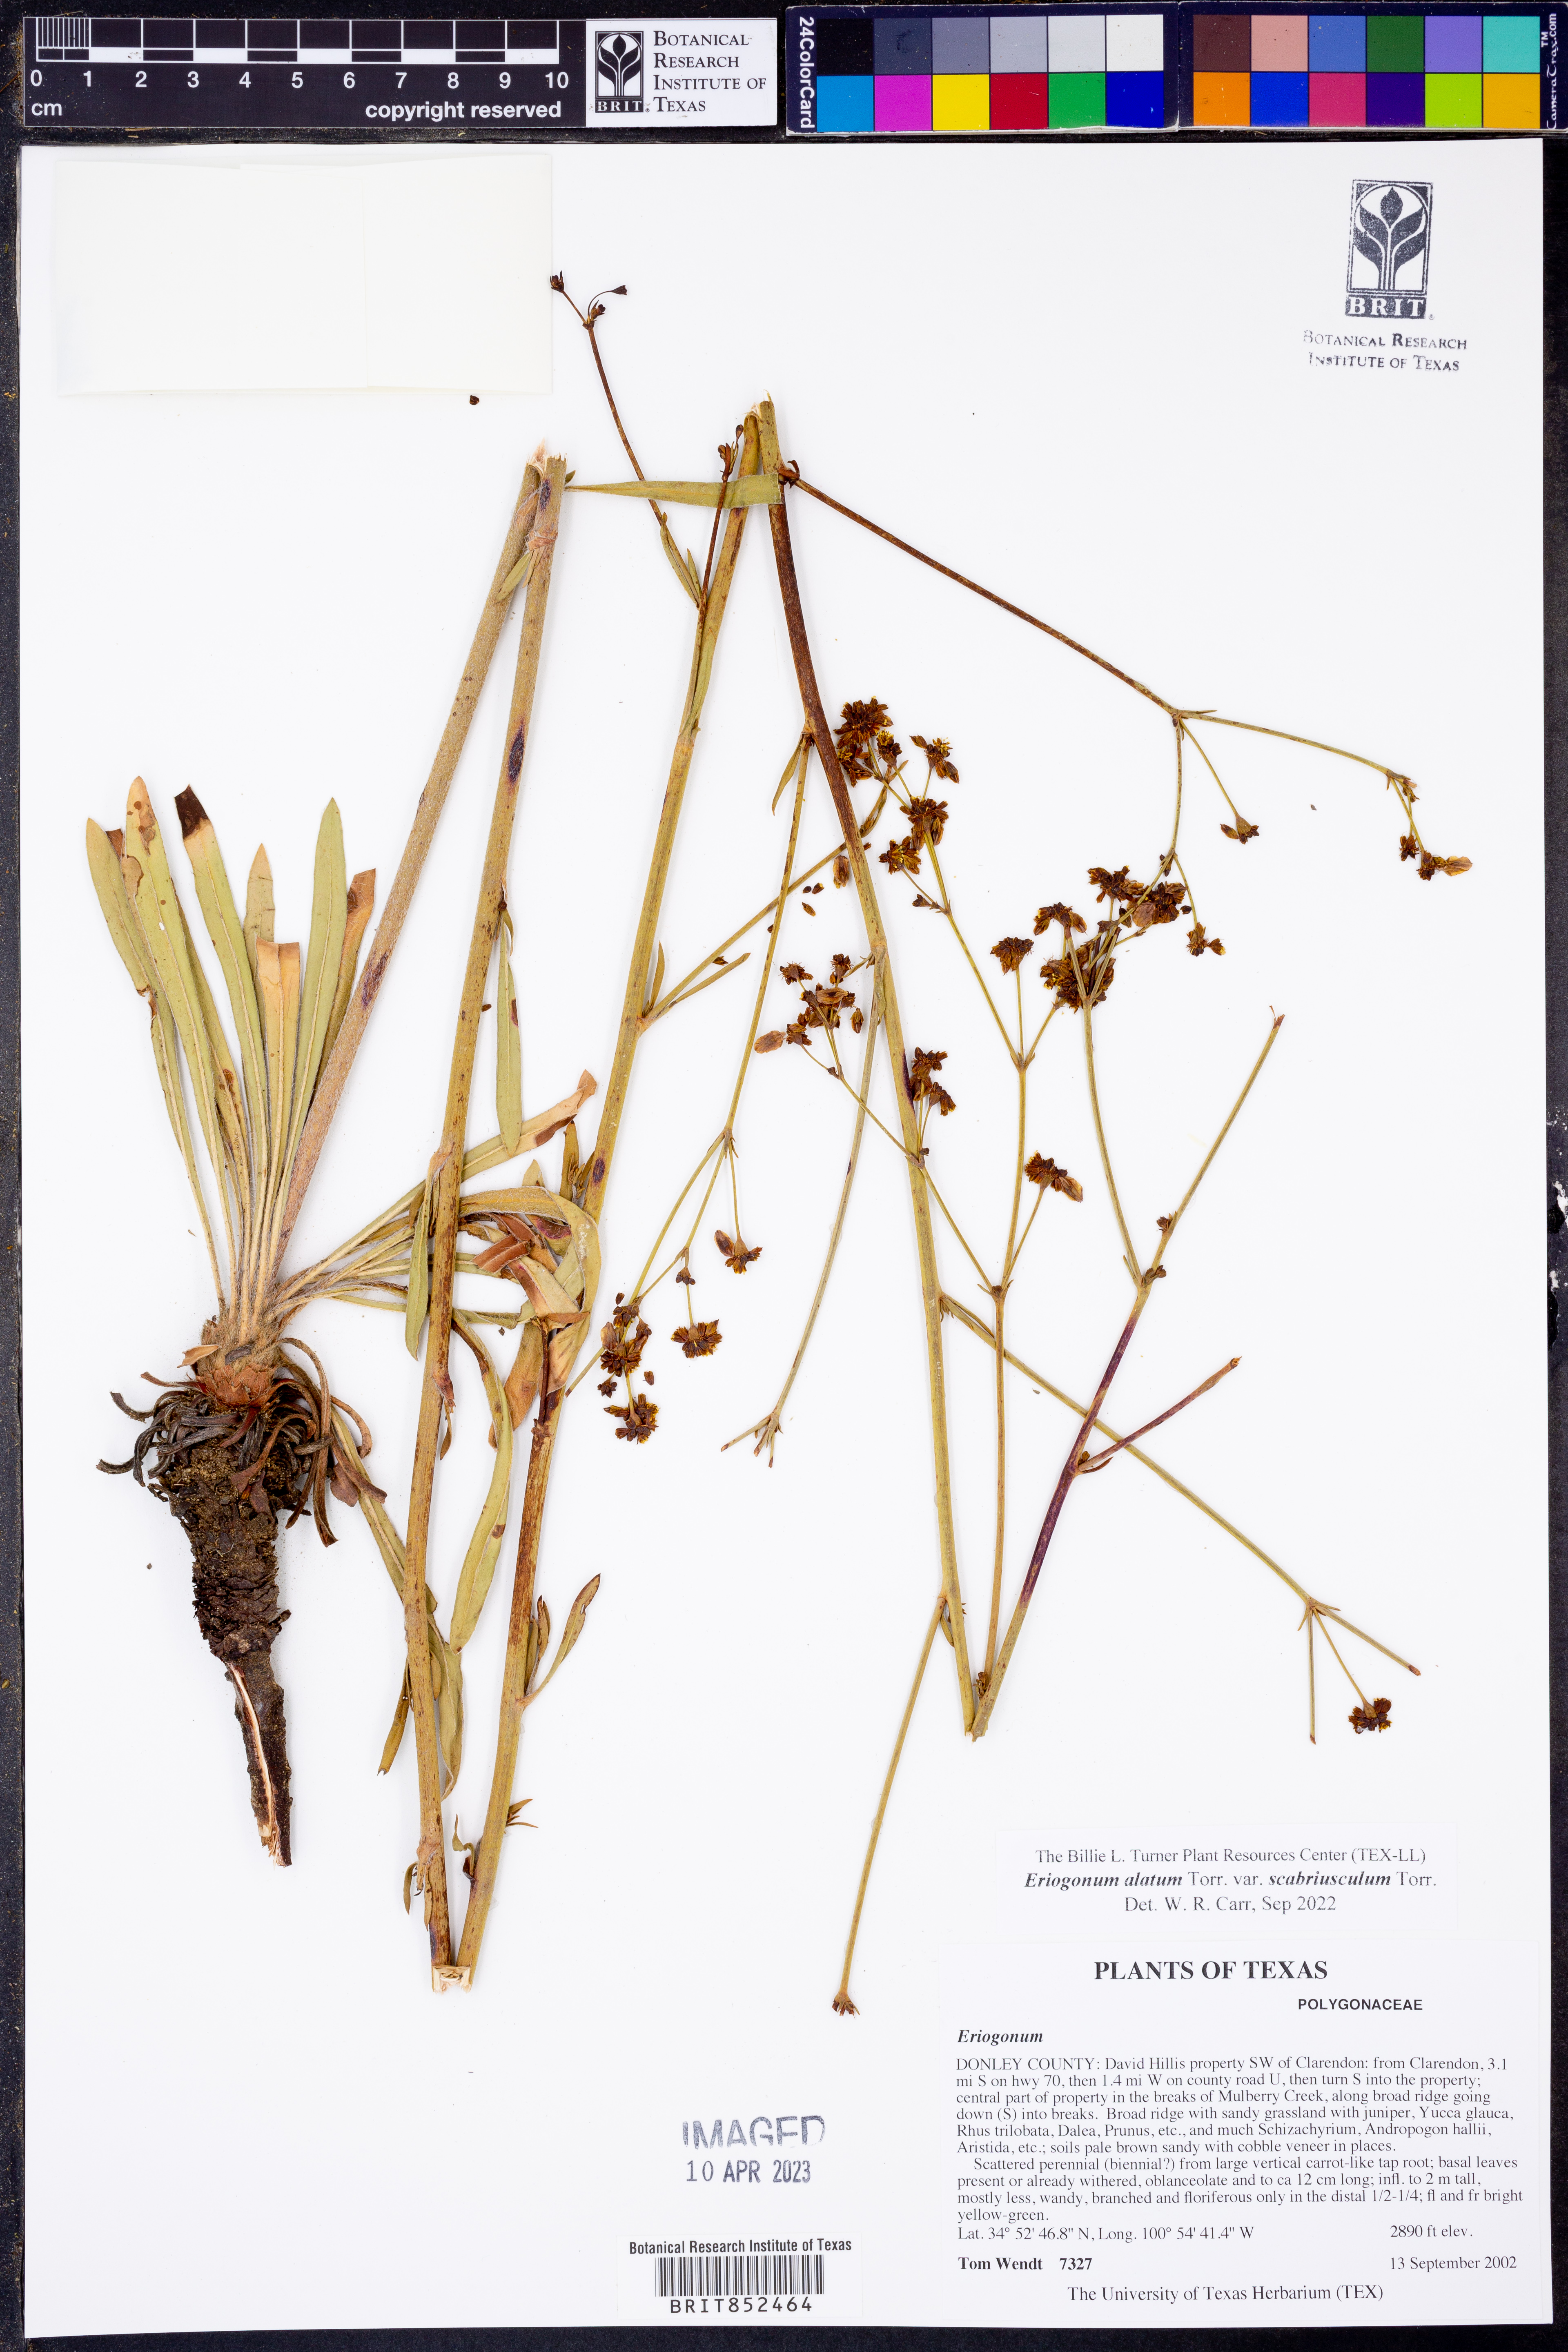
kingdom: Plantae
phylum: Tracheophyta
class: Magnoliopsida
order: Caryophyllales
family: Polygonaceae
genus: Eriogonum
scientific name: Eriogonum alatum
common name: Winged eriogonum
